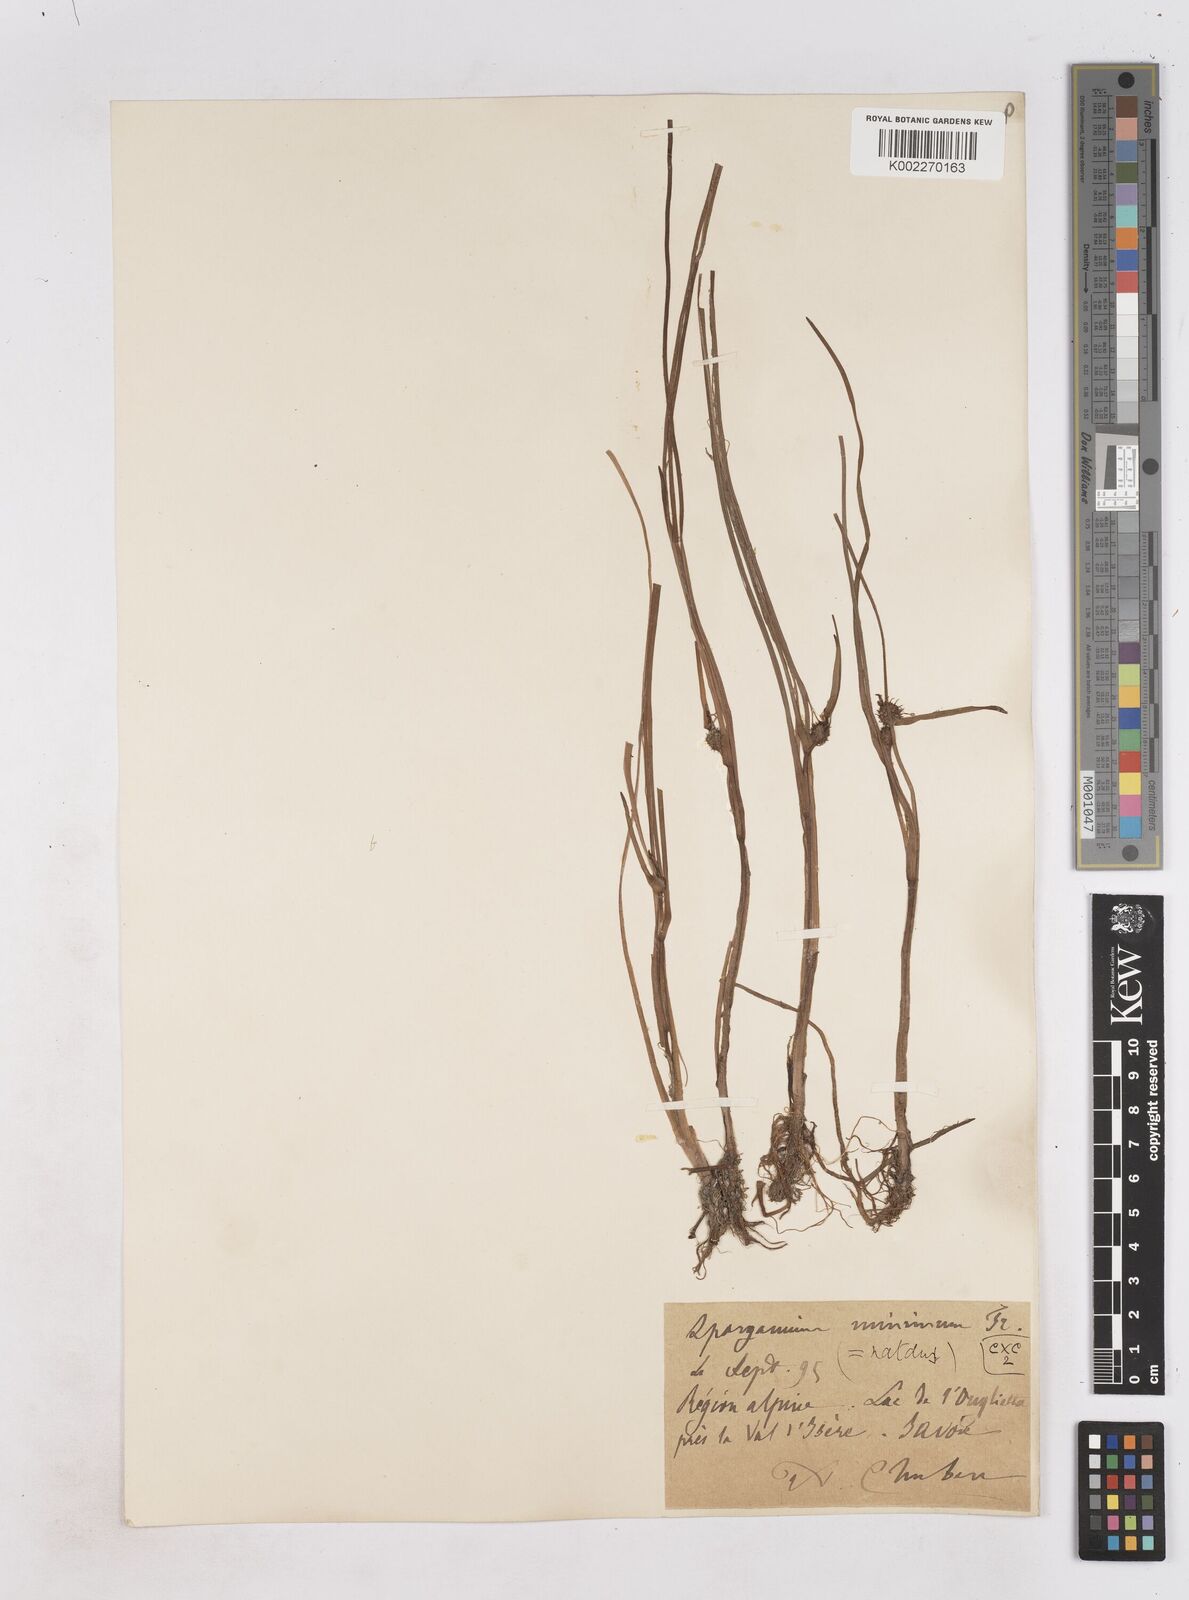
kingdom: Plantae
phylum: Tracheophyta
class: Liliopsida
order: Poales
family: Typhaceae
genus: Sparganium
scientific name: Sparganium natans
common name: Least bur-reed
